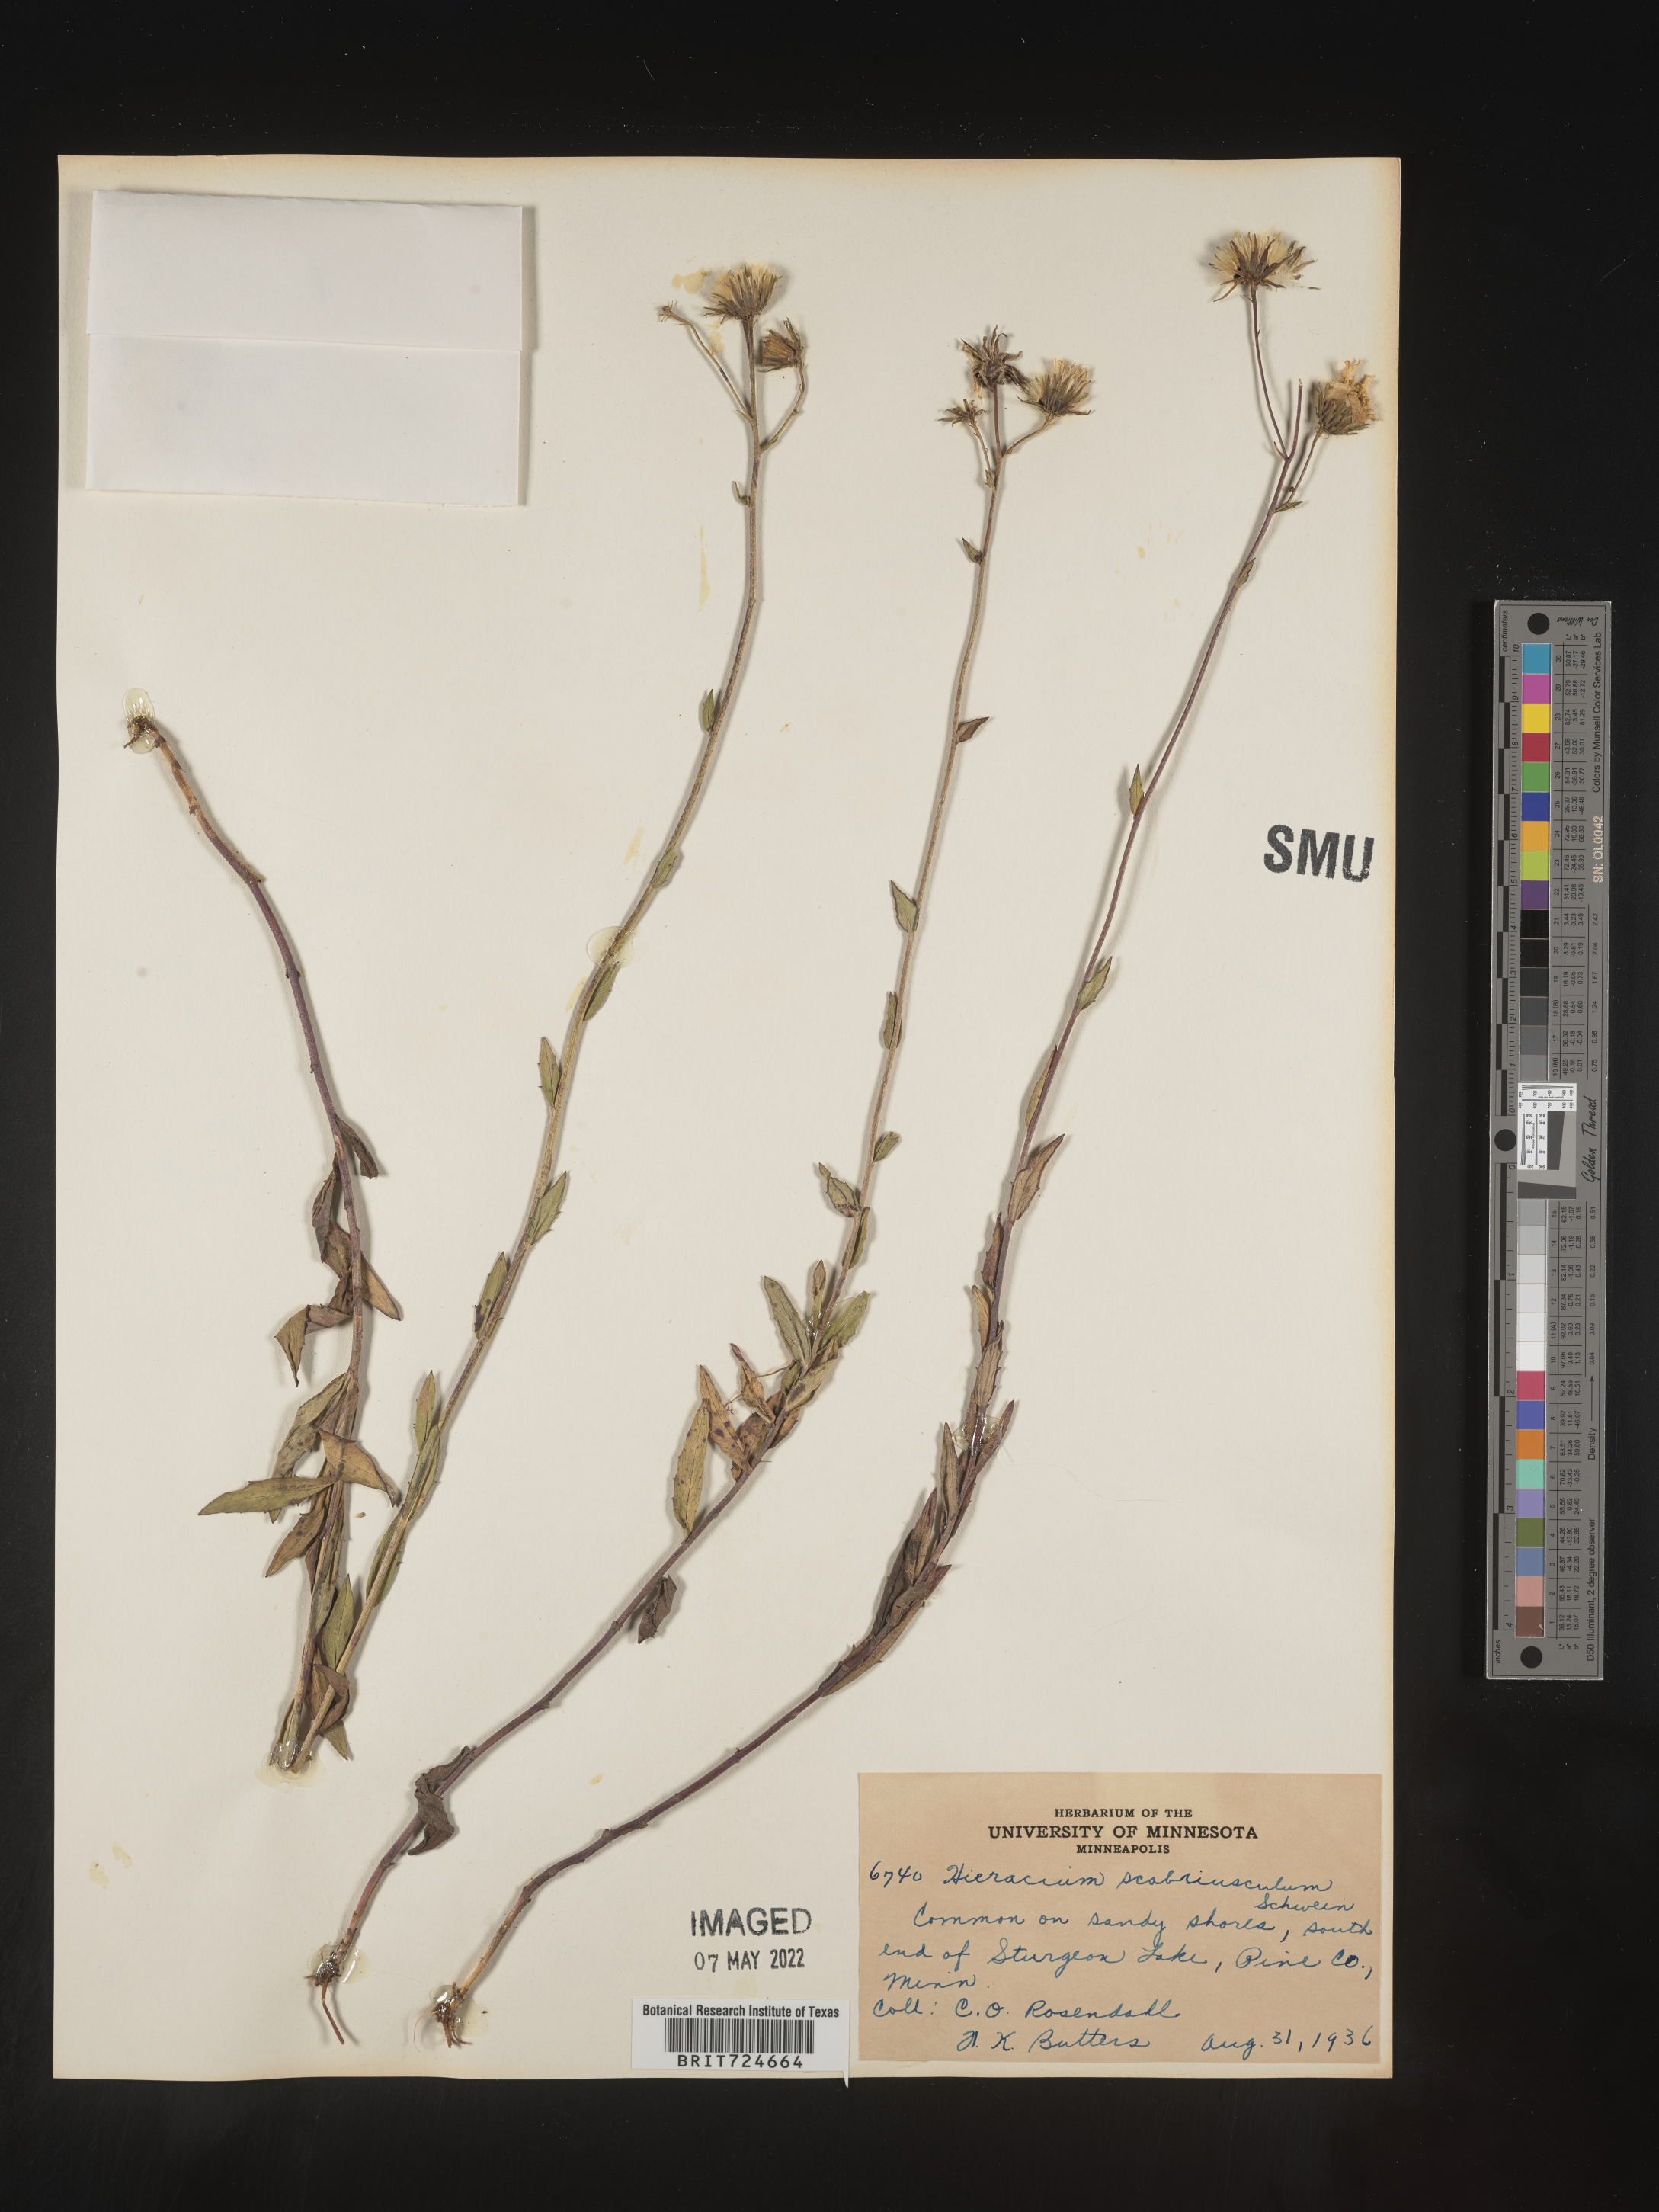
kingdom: Plantae
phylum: Tracheophyta
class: Magnoliopsida
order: Asterales
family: Asteraceae
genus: Hieracium
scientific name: Hieracium
